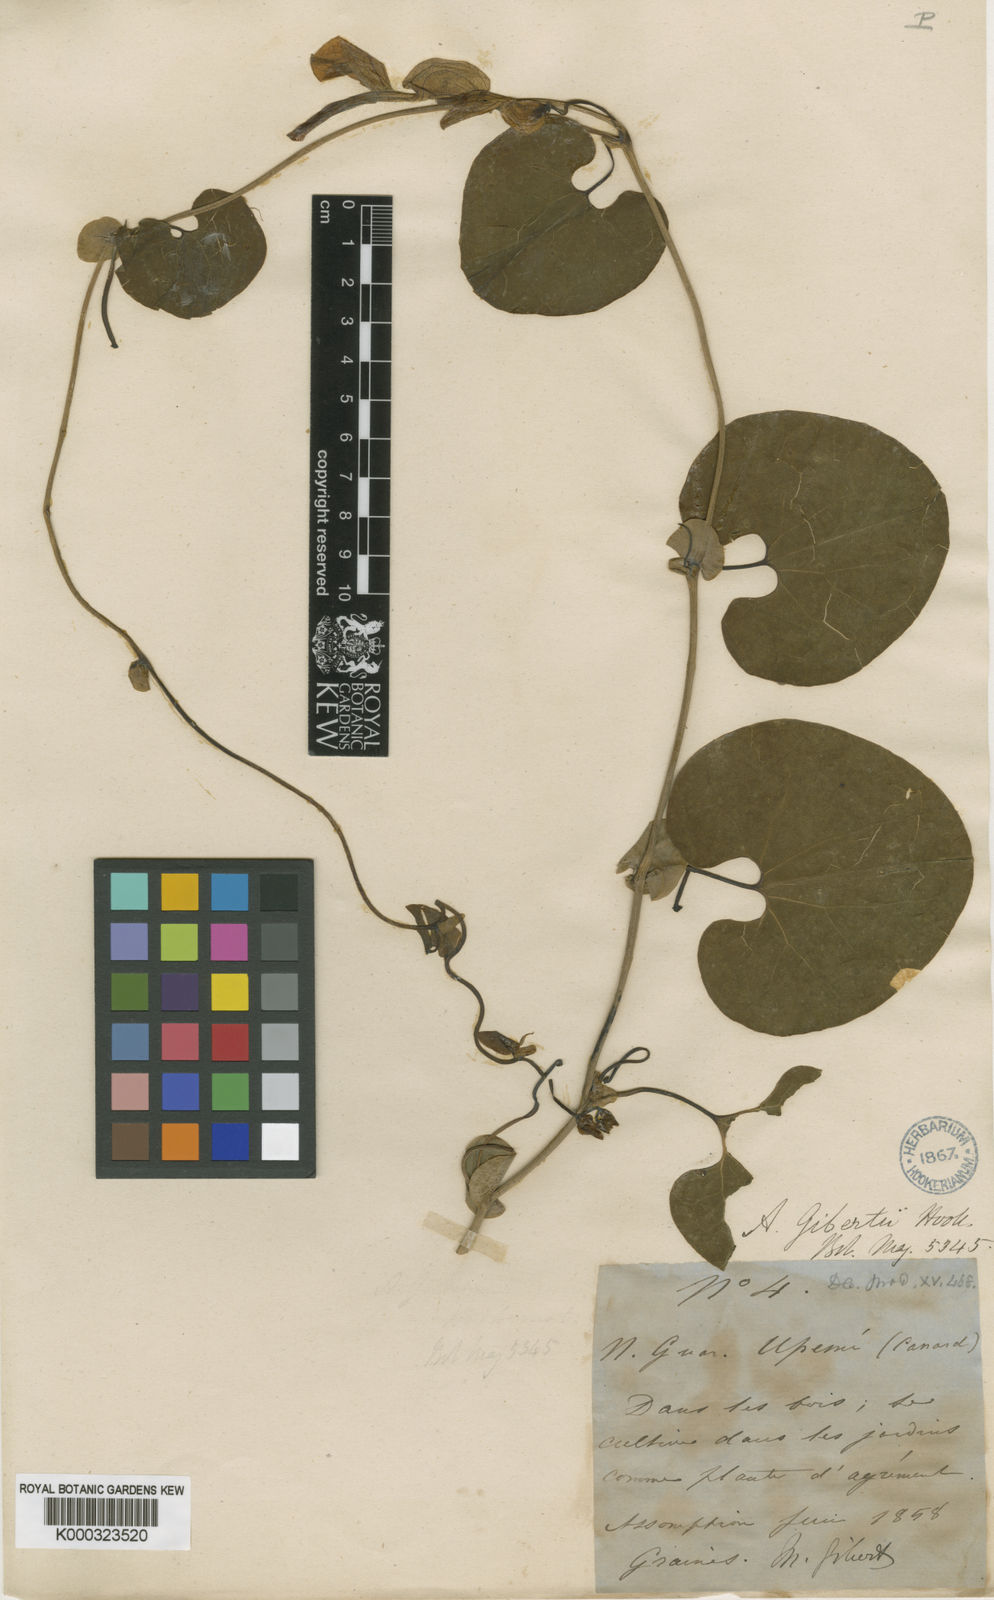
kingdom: Plantae
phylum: Tracheophyta
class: Magnoliopsida
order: Piperales
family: Aristolochiaceae
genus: Aristolochia
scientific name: Aristolochia gibertii
